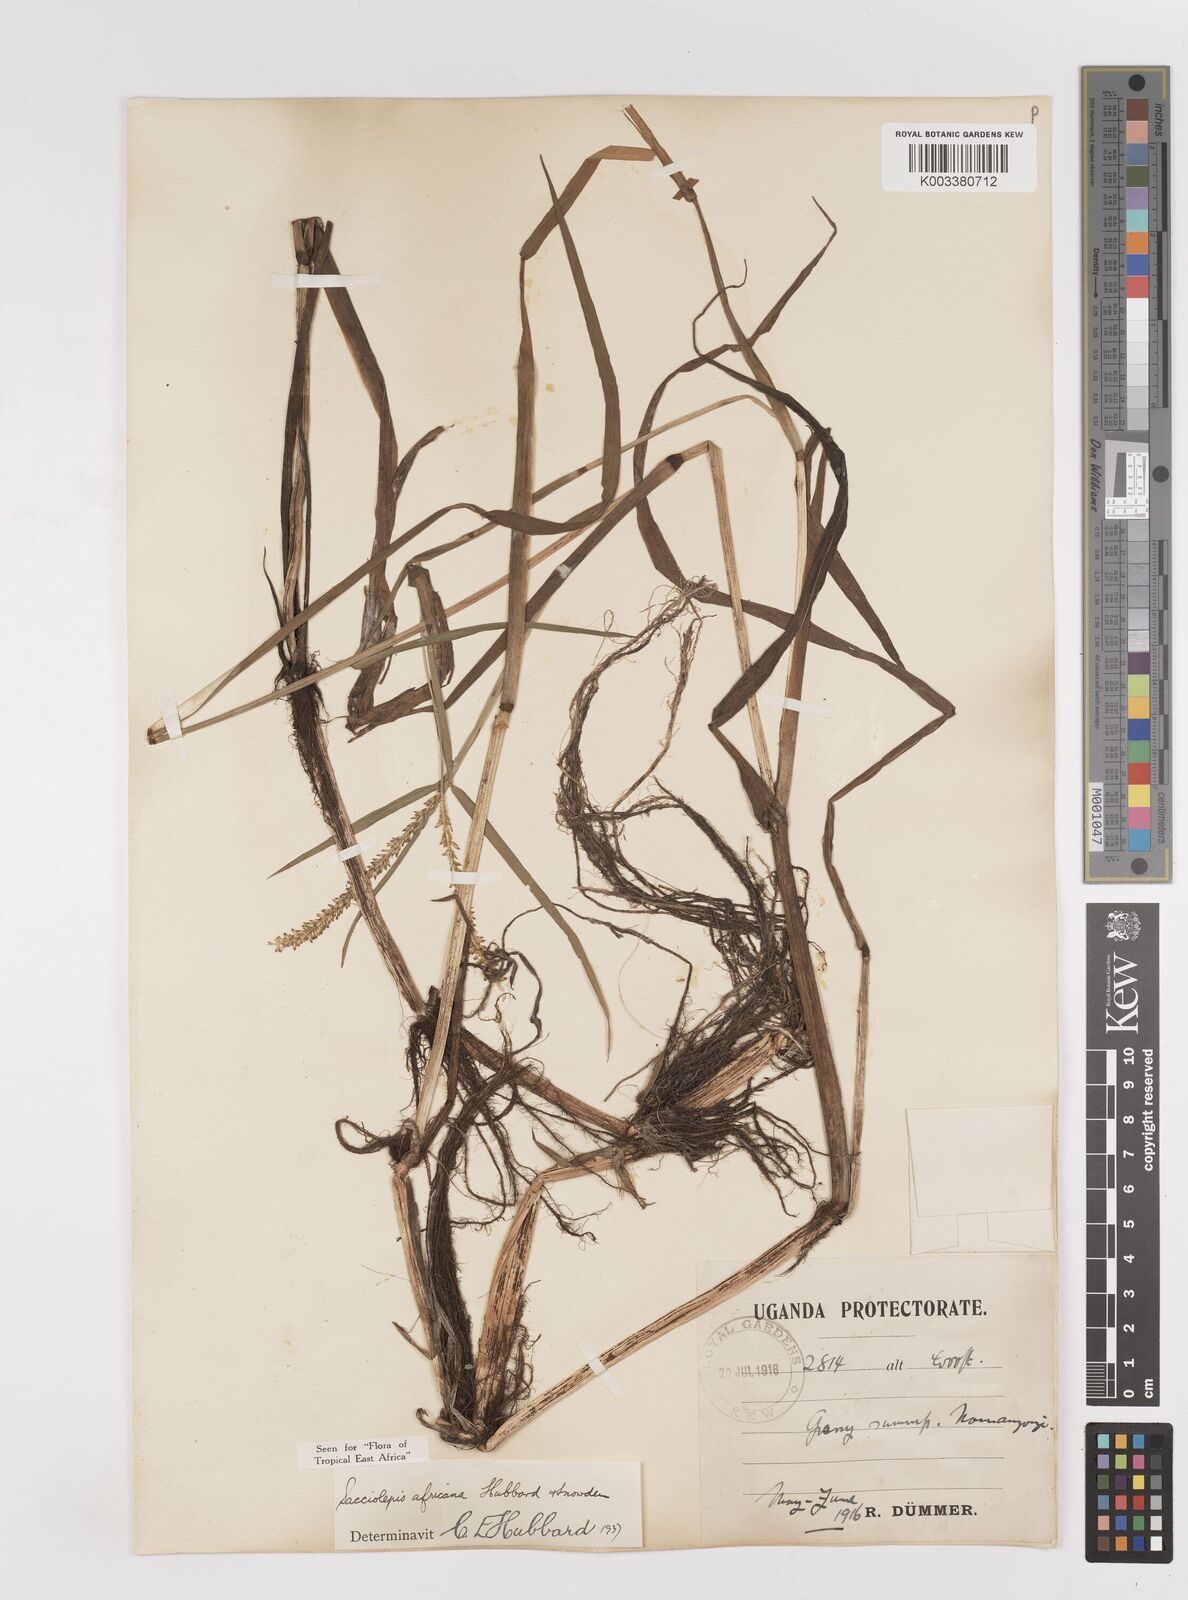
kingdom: Plantae
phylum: Tracheophyta
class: Liliopsida
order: Poales
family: Poaceae
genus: Sacciolepis
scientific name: Sacciolepis africana
